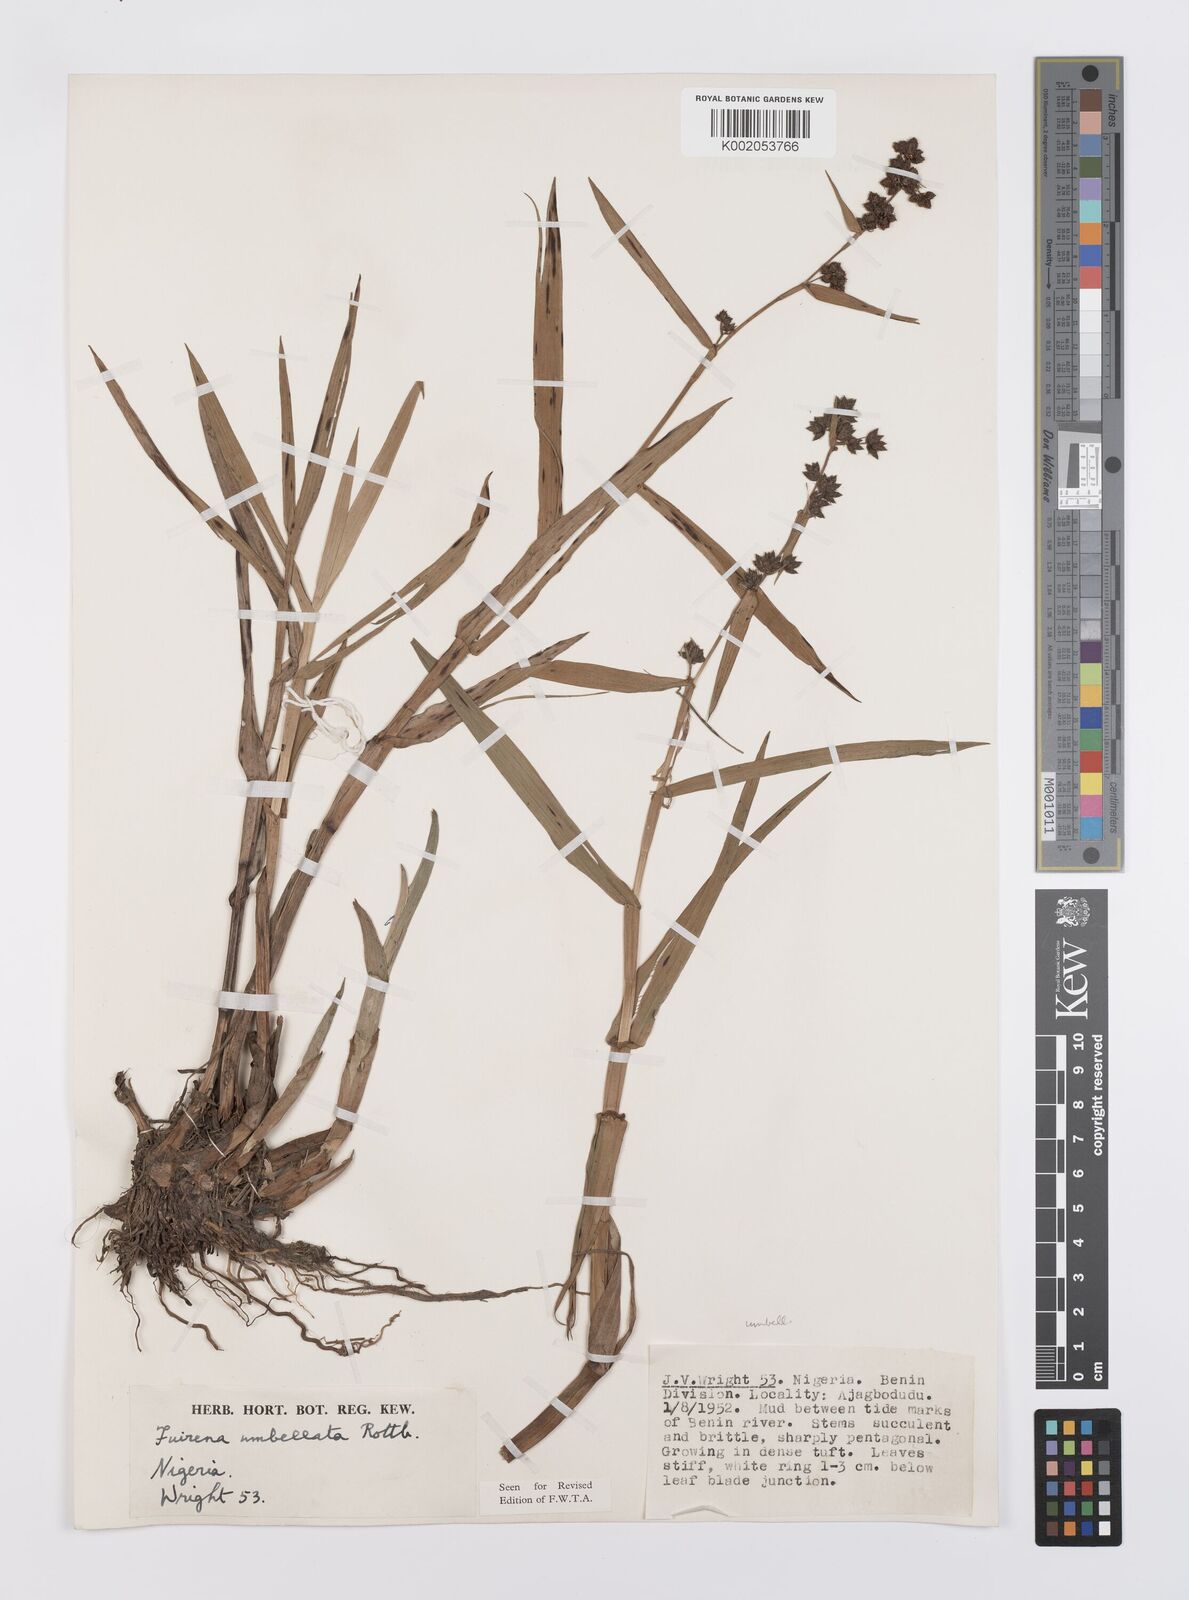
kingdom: Plantae
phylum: Tracheophyta
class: Liliopsida
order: Poales
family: Cyperaceae
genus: Fuirena
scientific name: Fuirena umbellata
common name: Yefen
